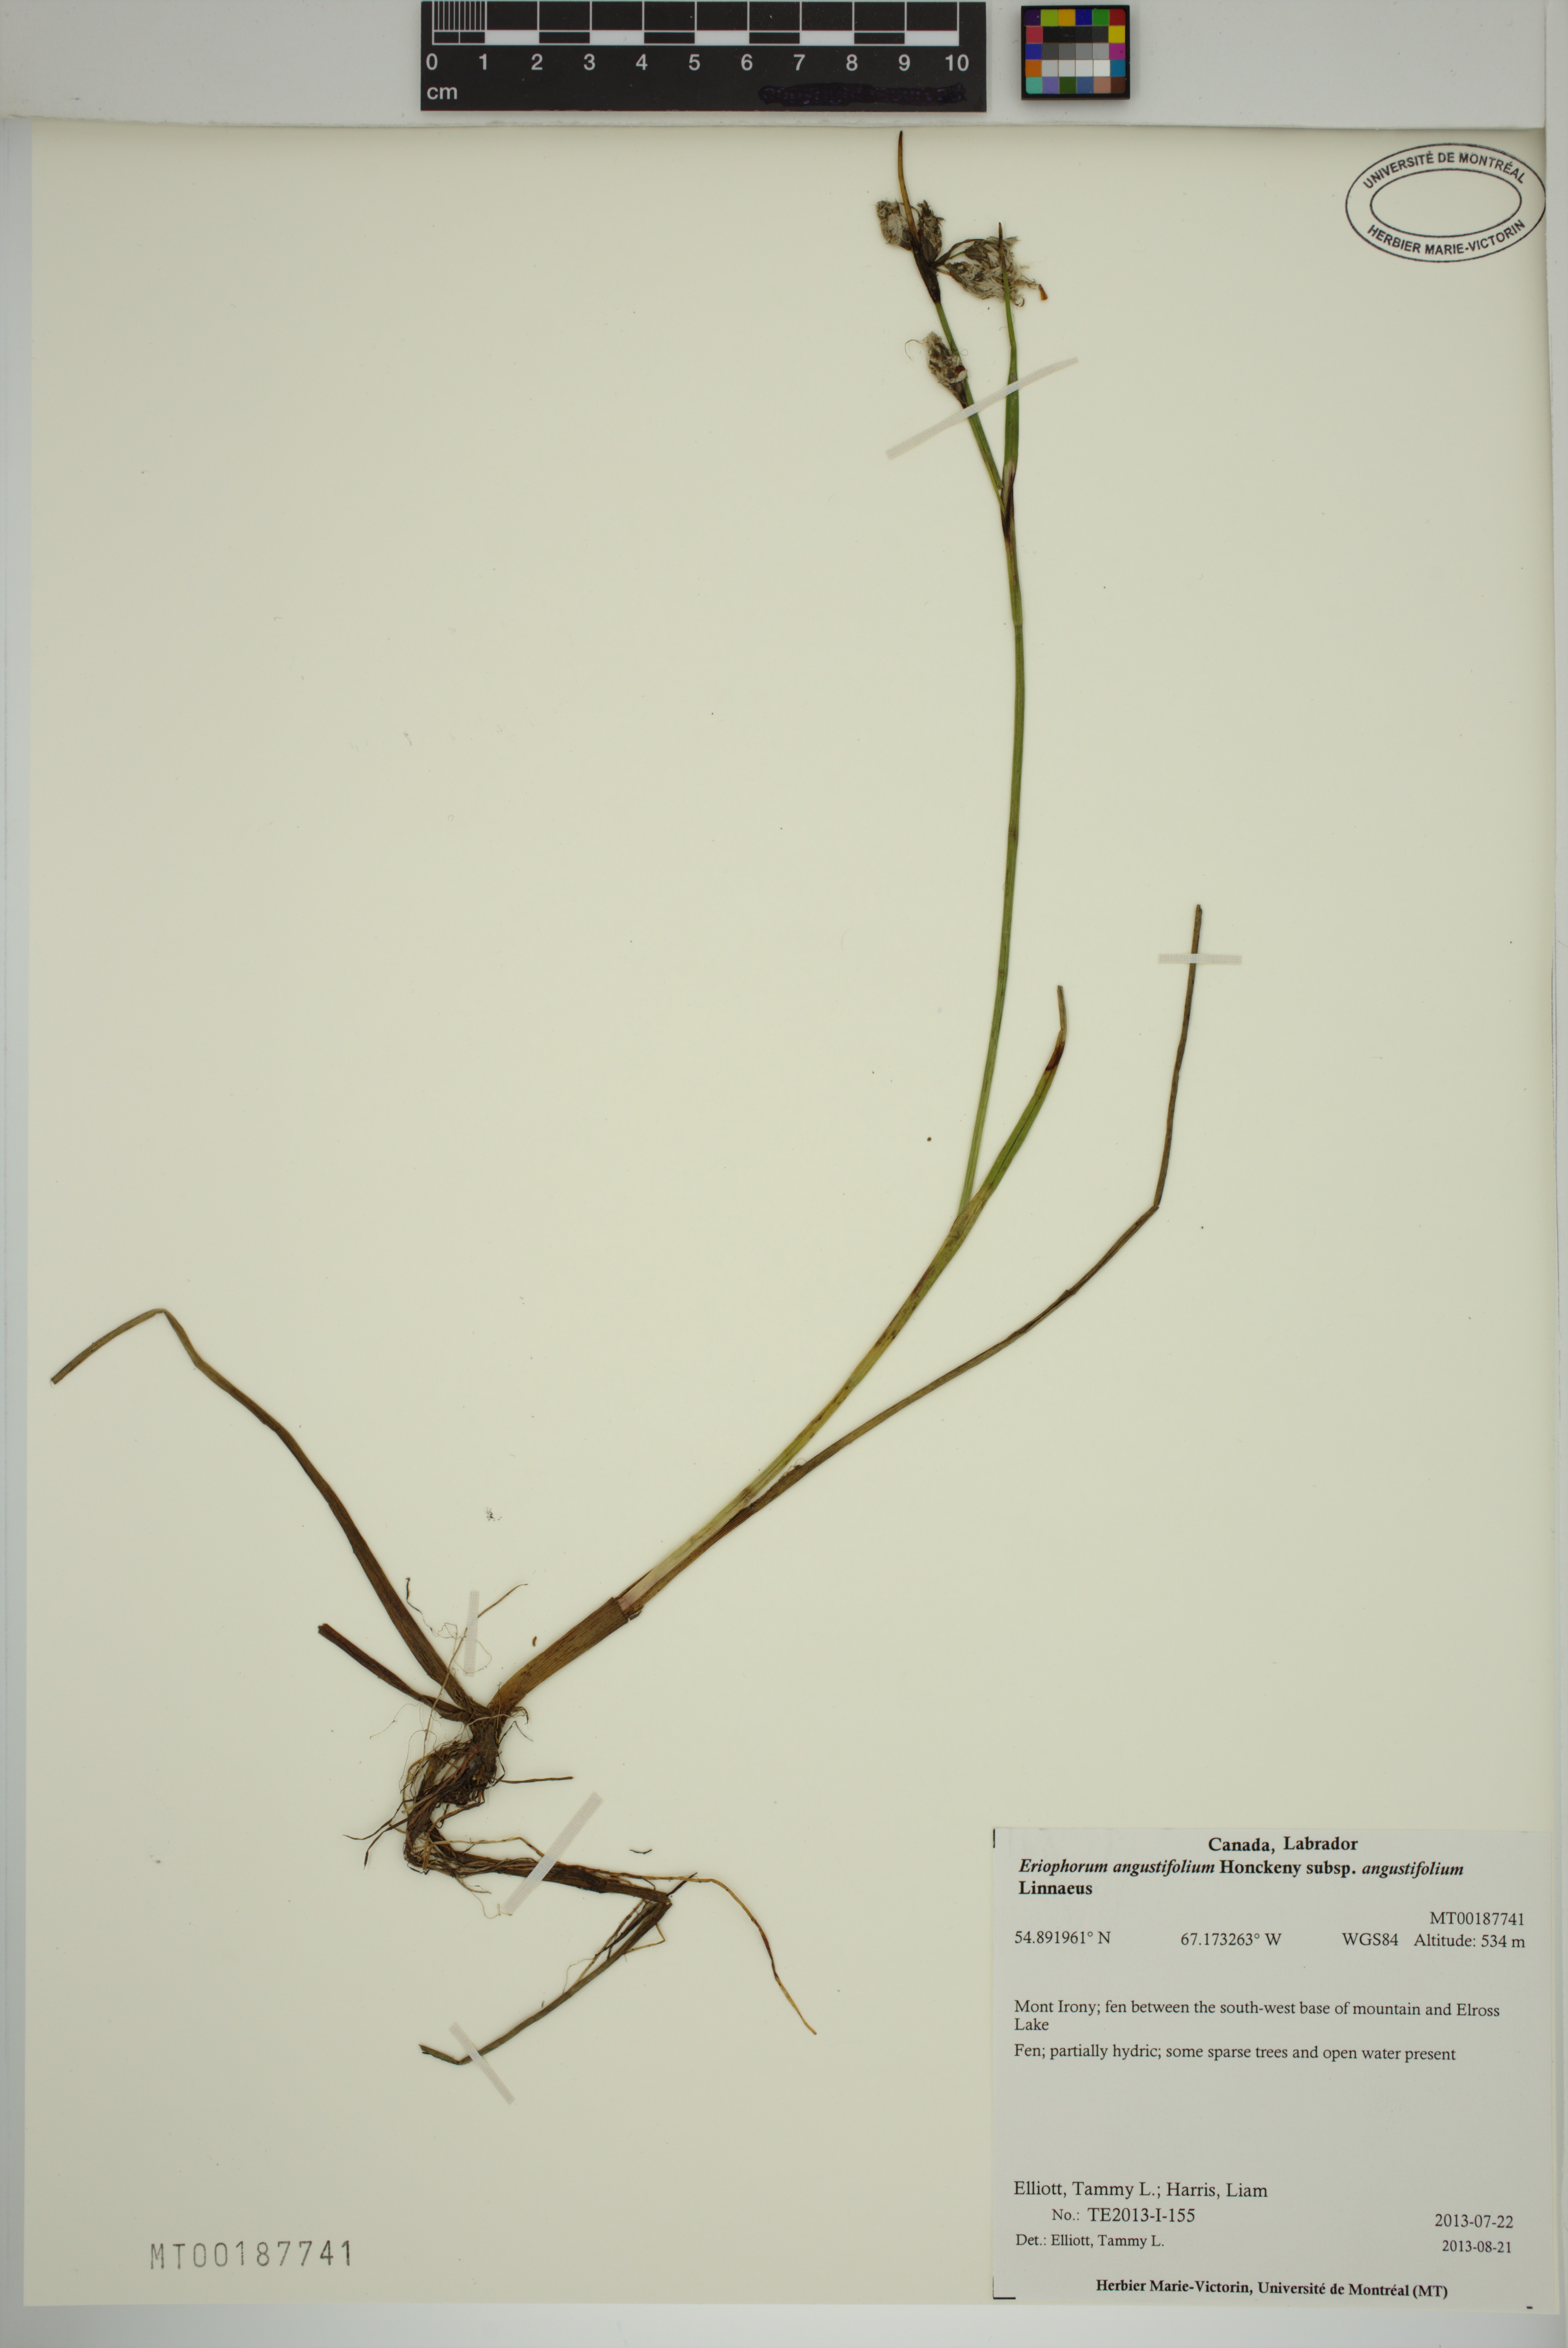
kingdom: Plantae
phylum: Tracheophyta
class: Liliopsida
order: Poales
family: Cyperaceae
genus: Eriophorum
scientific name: Eriophorum angustifolium
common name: Common cottongrass
